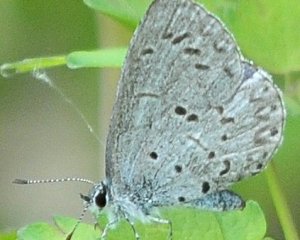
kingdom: Animalia
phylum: Arthropoda
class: Insecta
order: Lepidoptera
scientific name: Lepidoptera
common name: Butterflies
